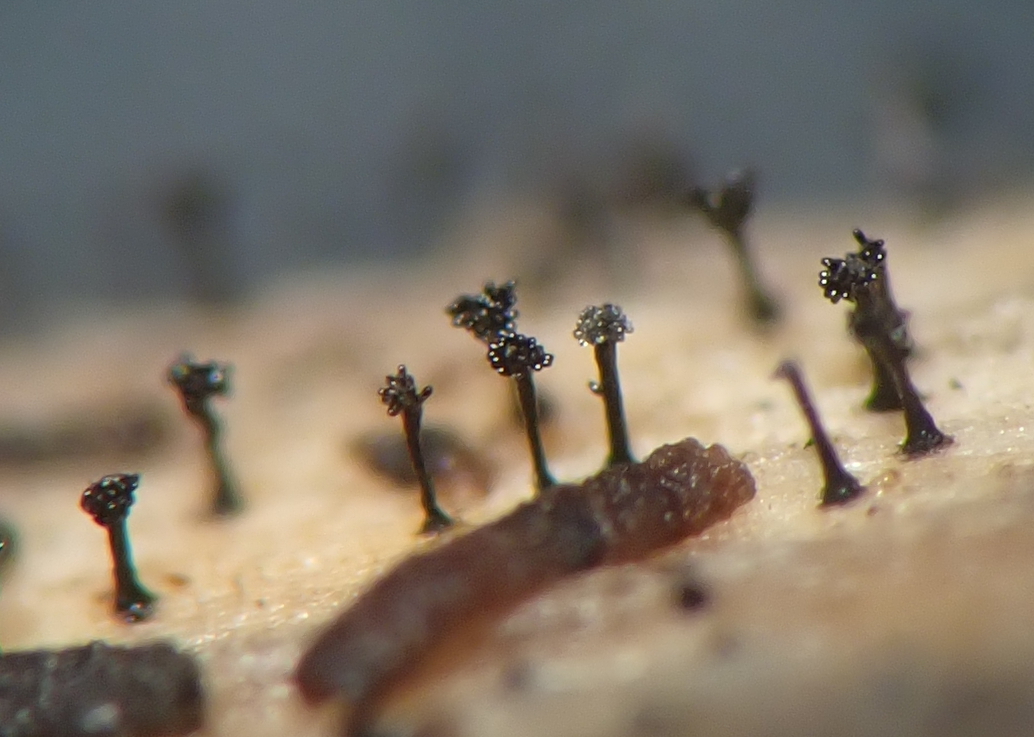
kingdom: Fungi
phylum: Ascomycota
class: Dothideomycetes
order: Pleosporales
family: Melanommataceae
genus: Phragmocephala
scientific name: Phragmocephala atra
